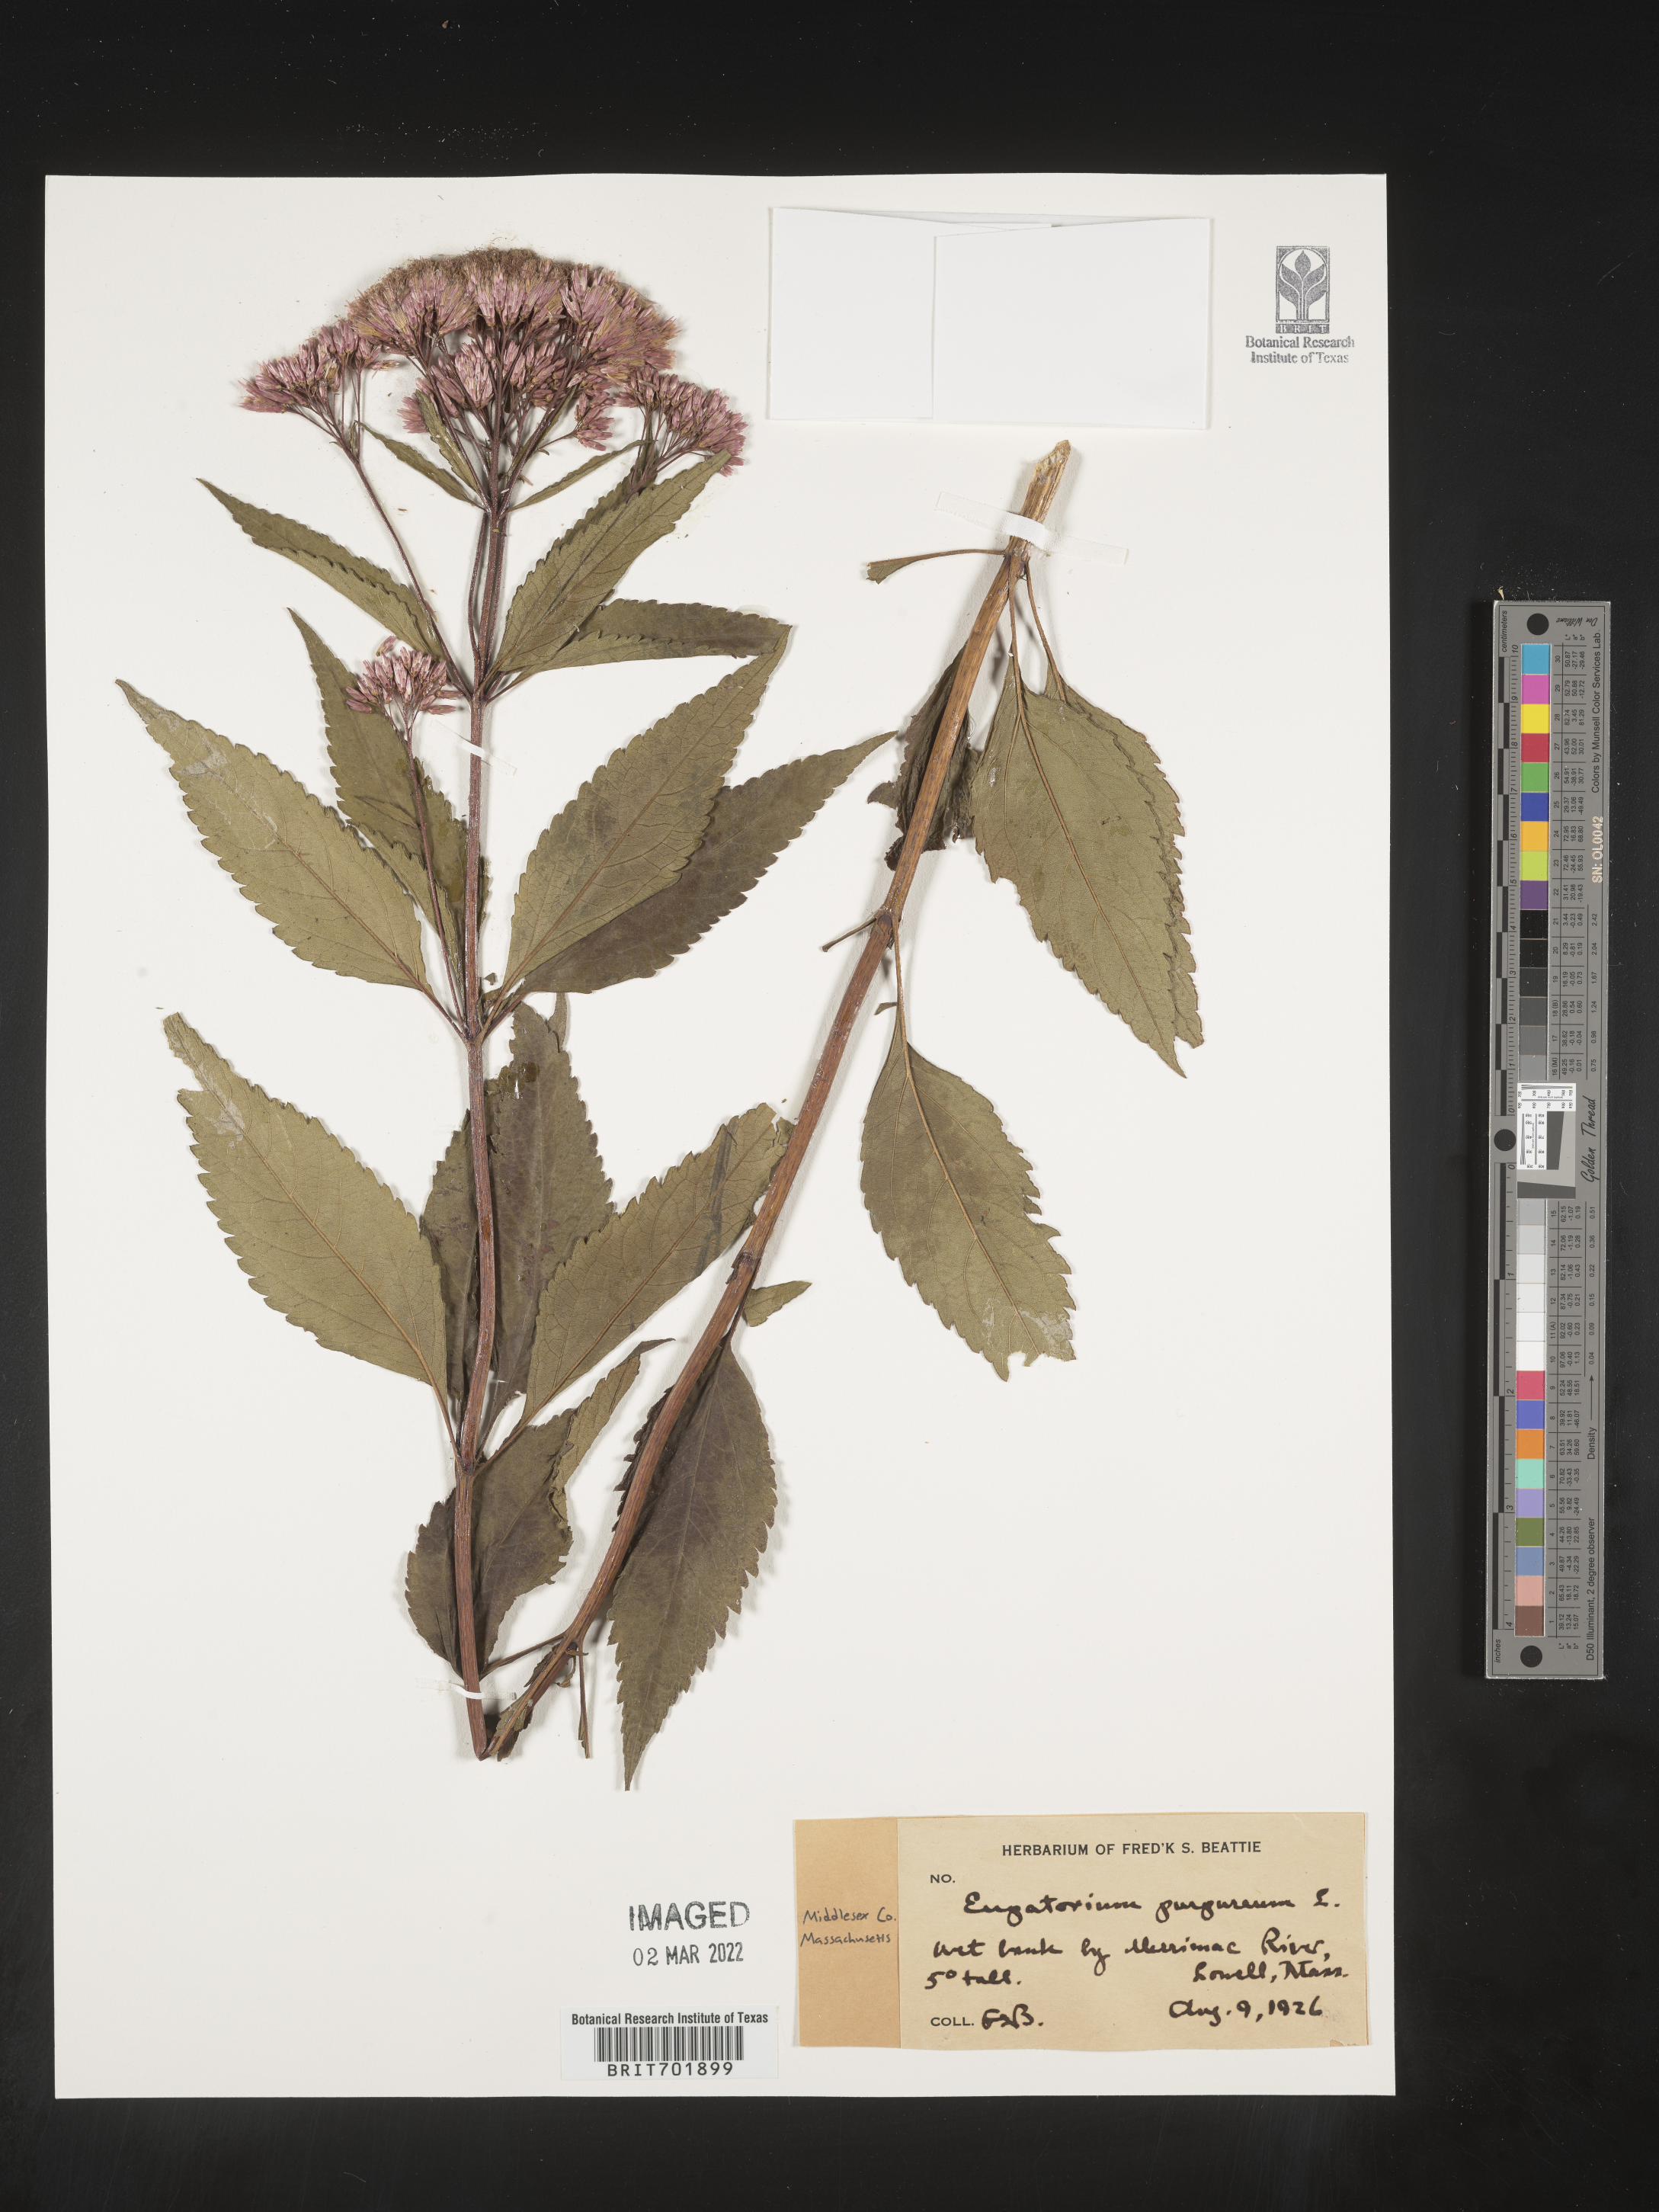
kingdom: Plantae
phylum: Tracheophyta
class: Magnoliopsida
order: Asterales
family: Asteraceae
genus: Eupatorium
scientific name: Eupatorium quaternum
